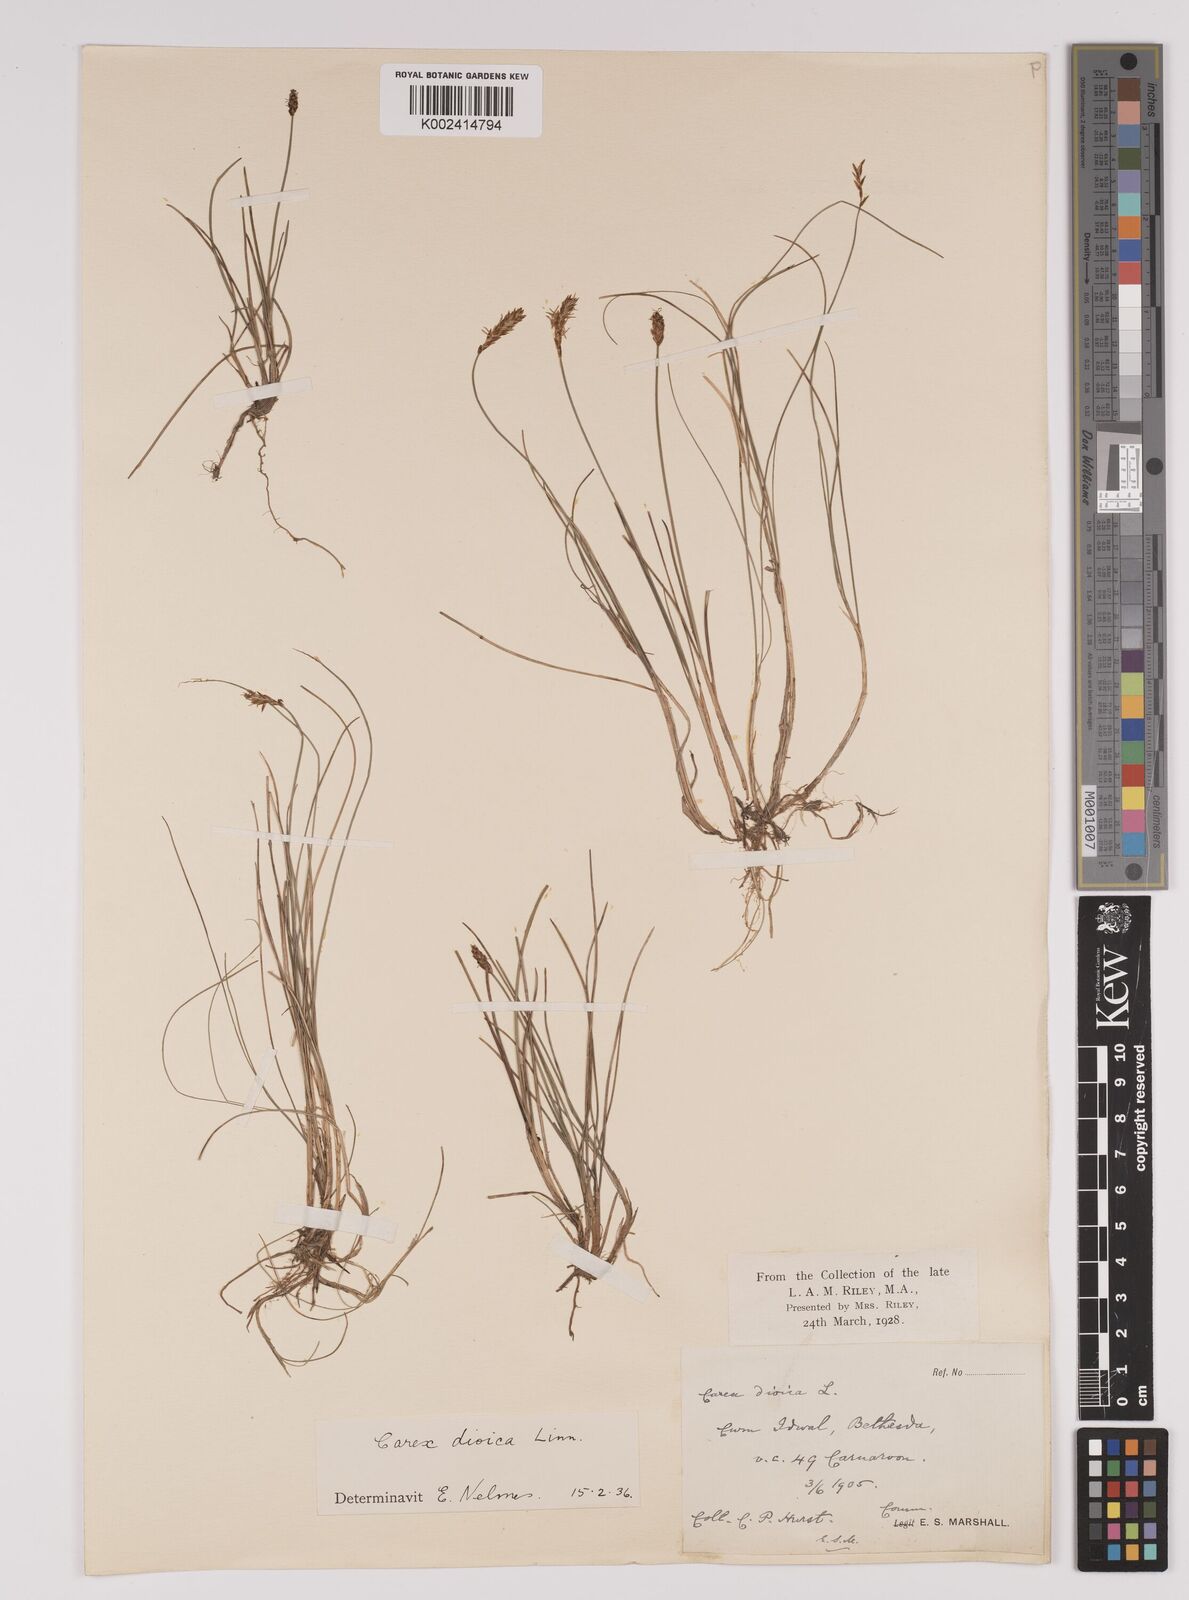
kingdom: Plantae
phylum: Tracheophyta
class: Liliopsida
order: Poales
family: Cyperaceae
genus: Carex
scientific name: Carex dioica
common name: Dioecious sedge
